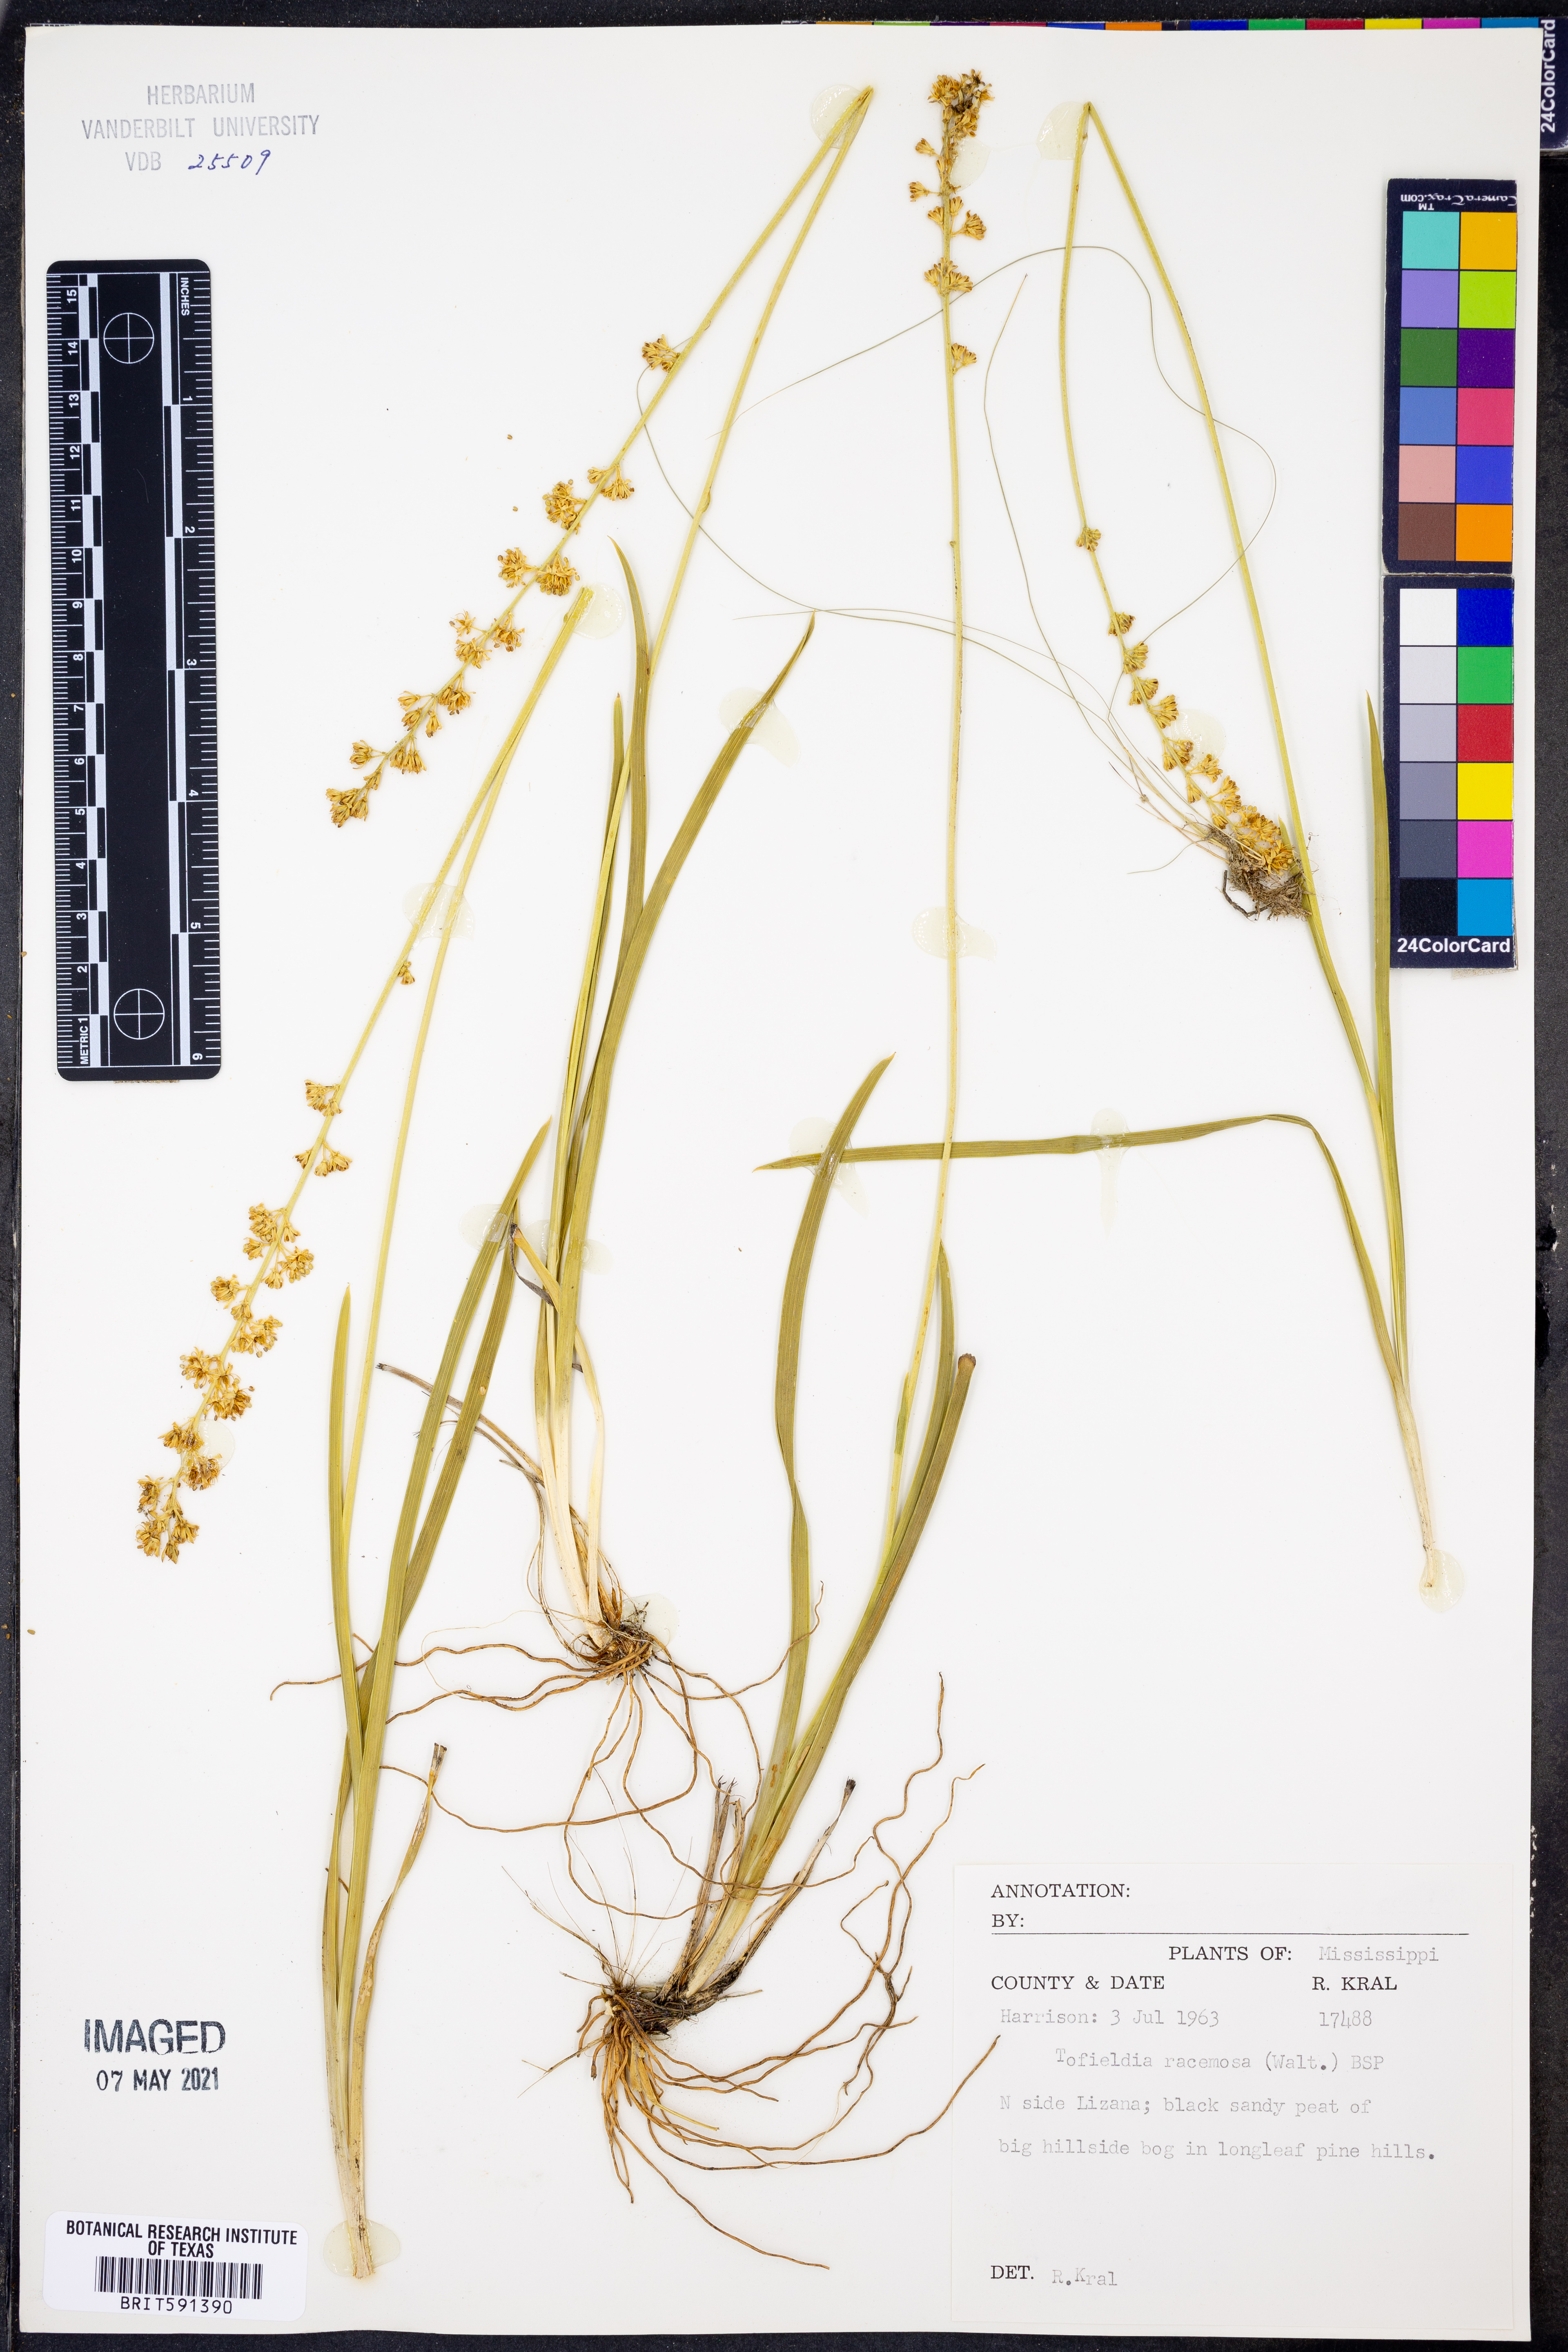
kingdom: Plantae
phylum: Tracheophyta
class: Liliopsida
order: Alismatales
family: Tofieldiaceae
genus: Triantha
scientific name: Triantha racemosa
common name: Coastal false asphodel
